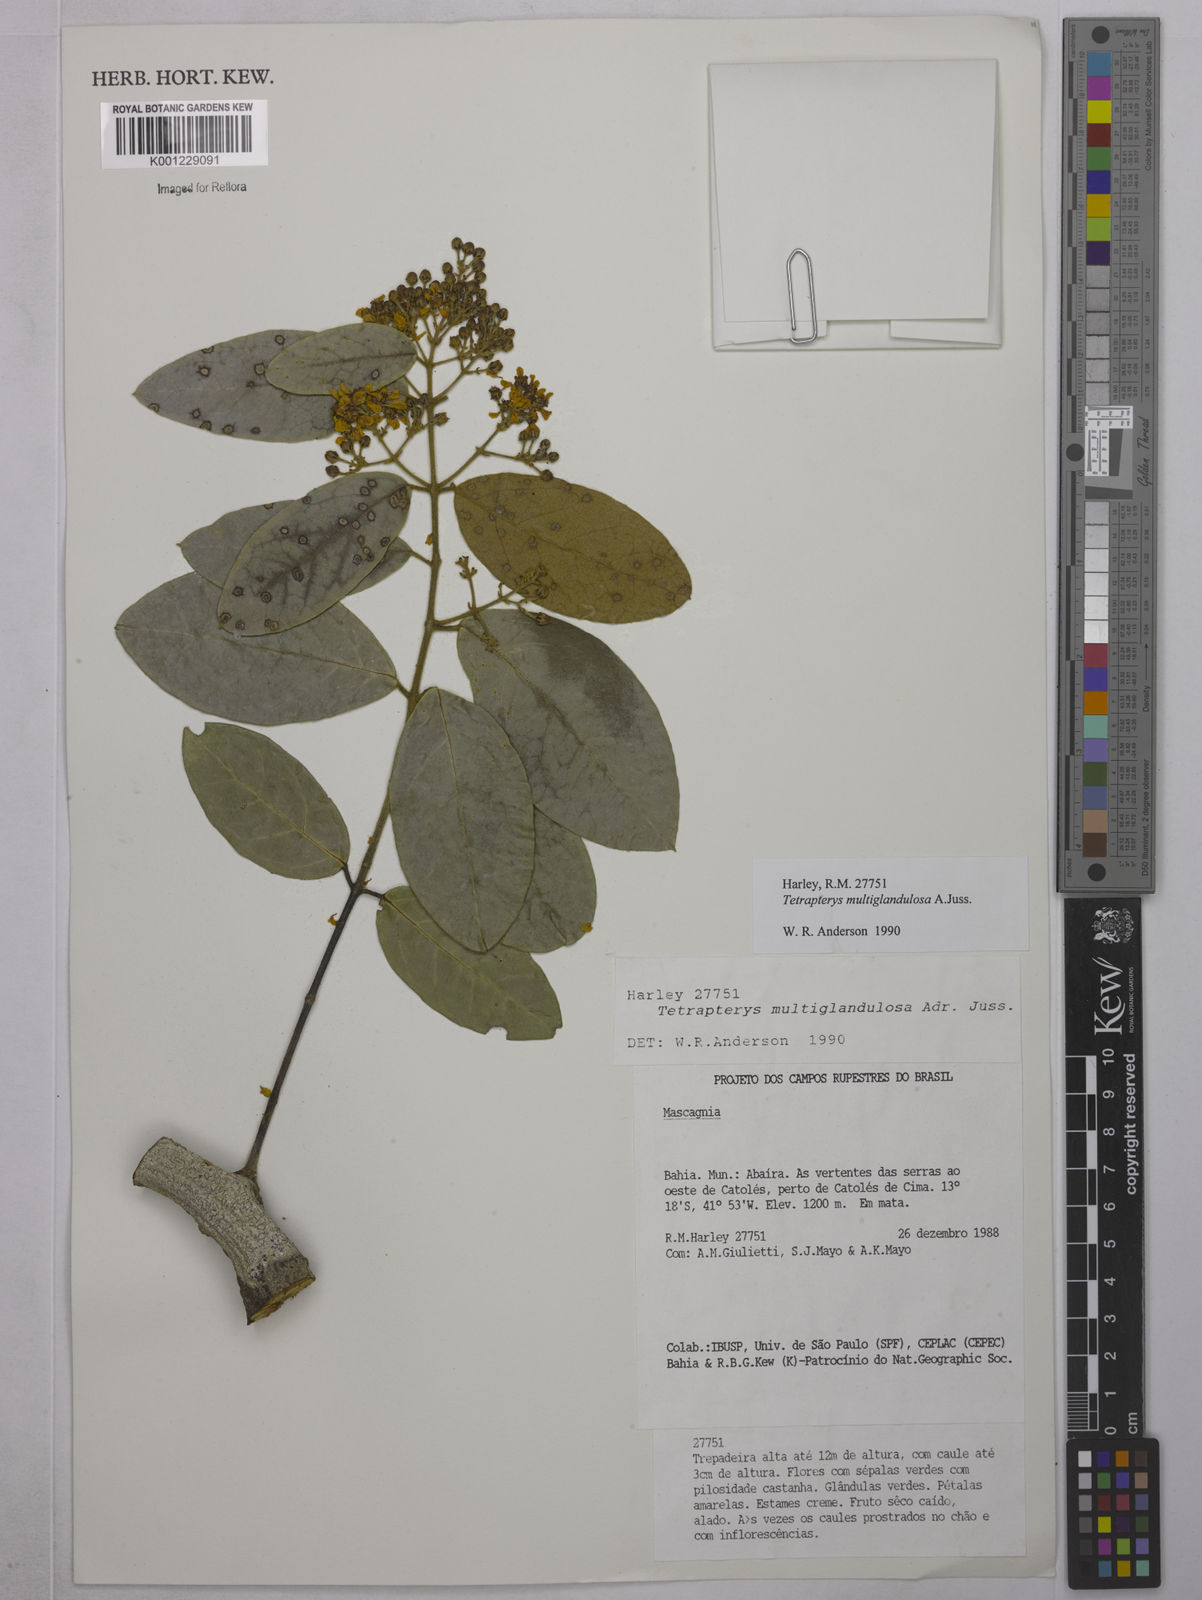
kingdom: Plantae
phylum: Tracheophyta
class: Magnoliopsida
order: Malpighiales
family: Malpighiaceae
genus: Niedenzuella
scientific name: Niedenzuella multiglandulosa
